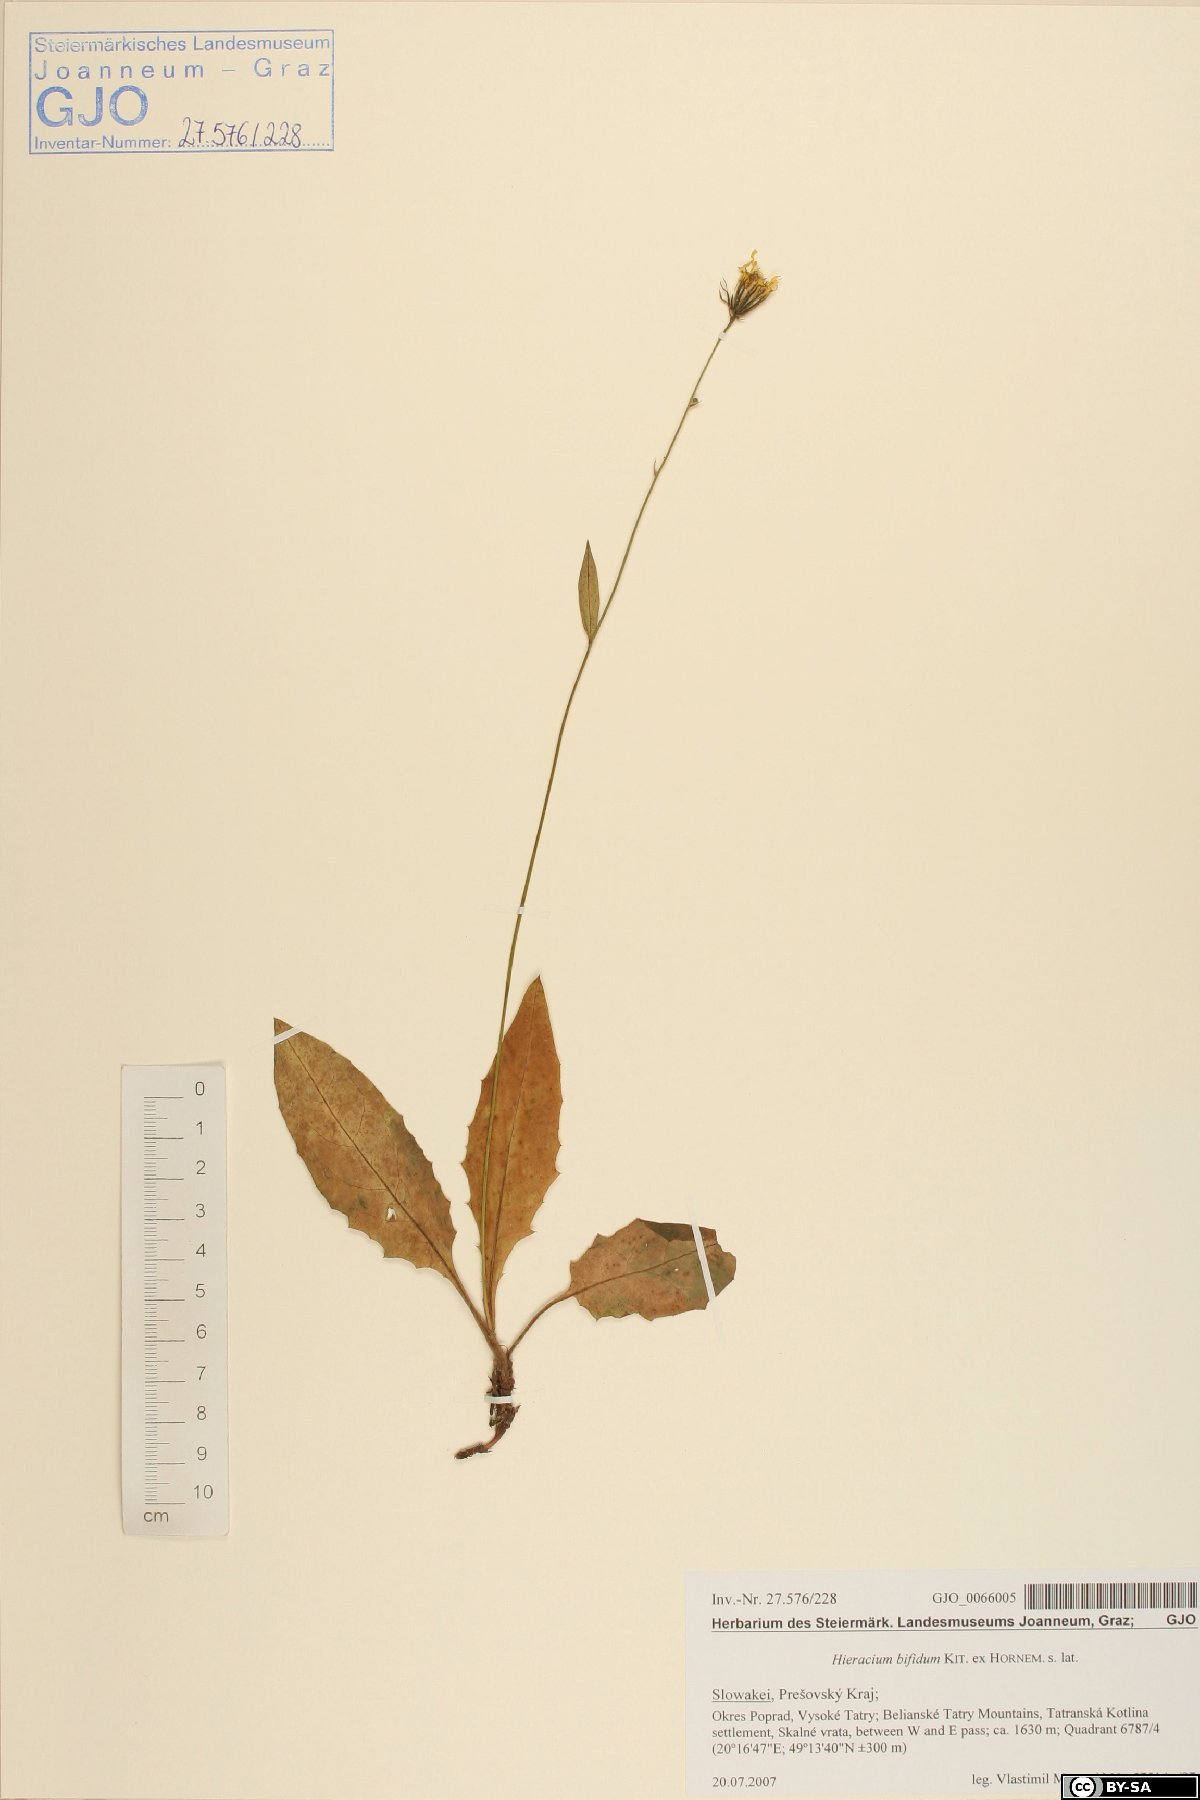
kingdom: Plantae
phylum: Tracheophyta
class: Magnoliopsida
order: Asterales
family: Asteraceae
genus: Hieracium
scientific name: Hieracium bifidum
